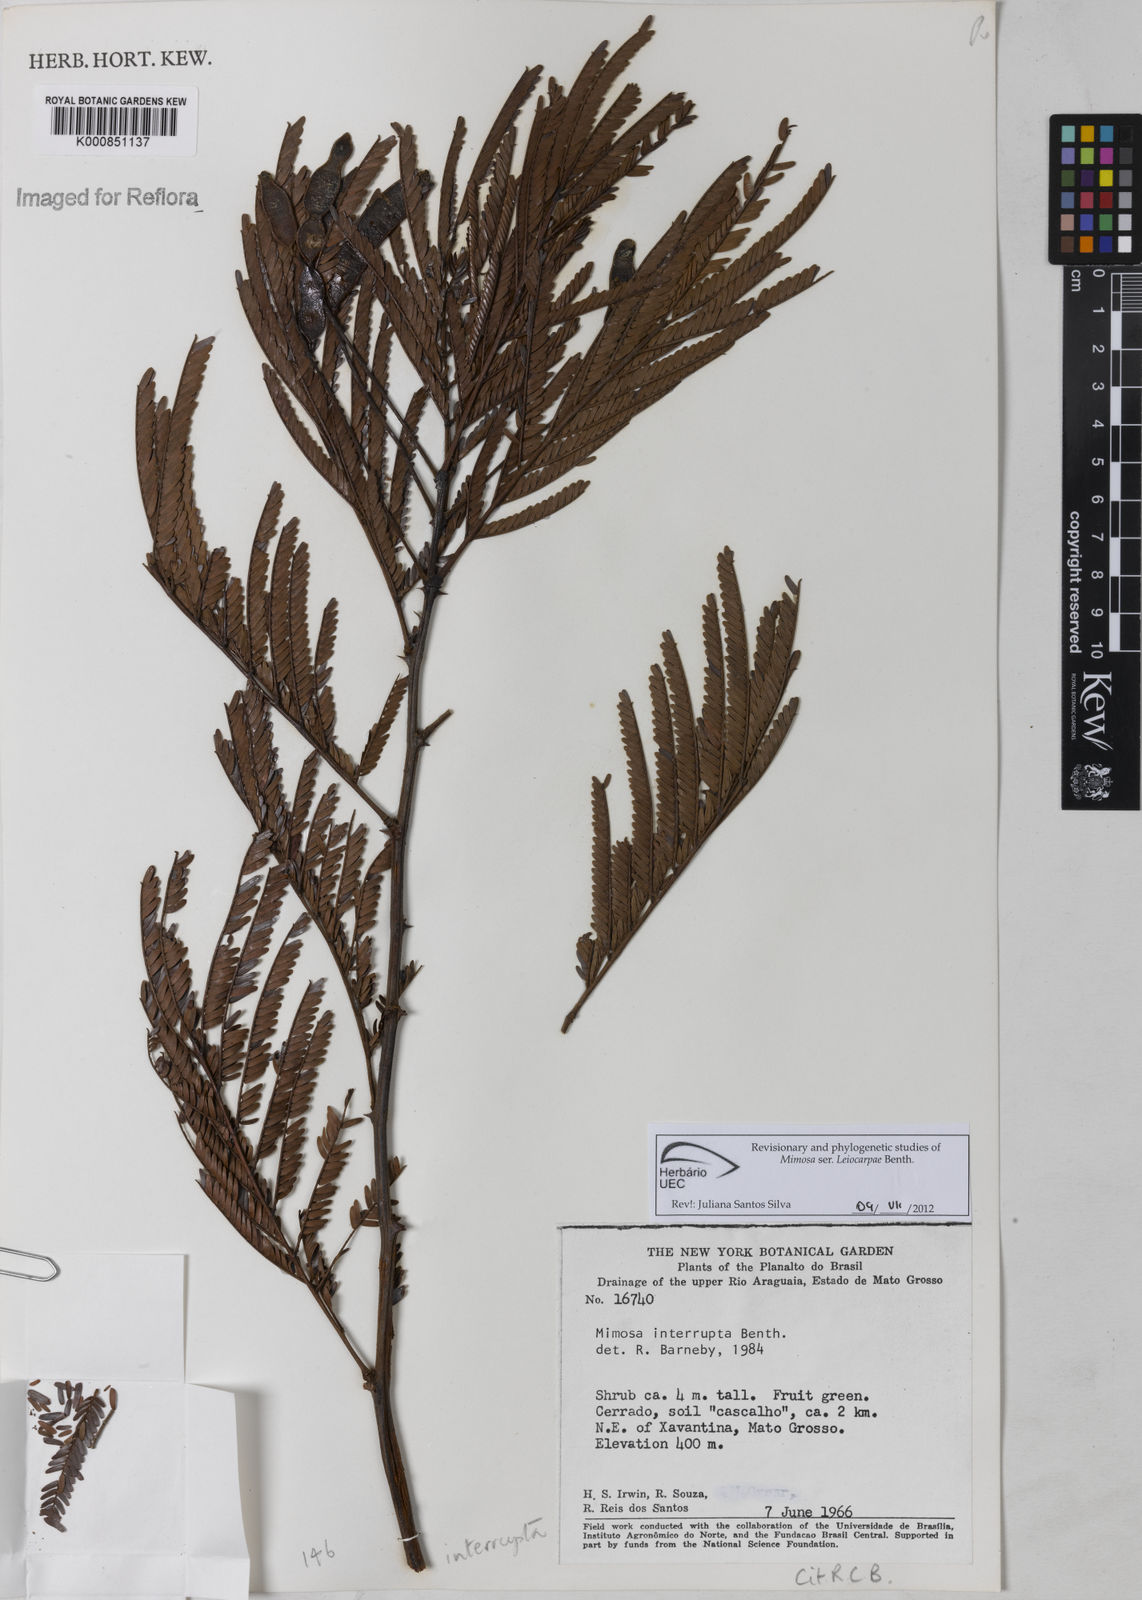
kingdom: Plantae
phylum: Tracheophyta
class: Magnoliopsida
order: Fabales
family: Fabaceae
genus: Mimosa
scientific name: Mimosa interrupta
